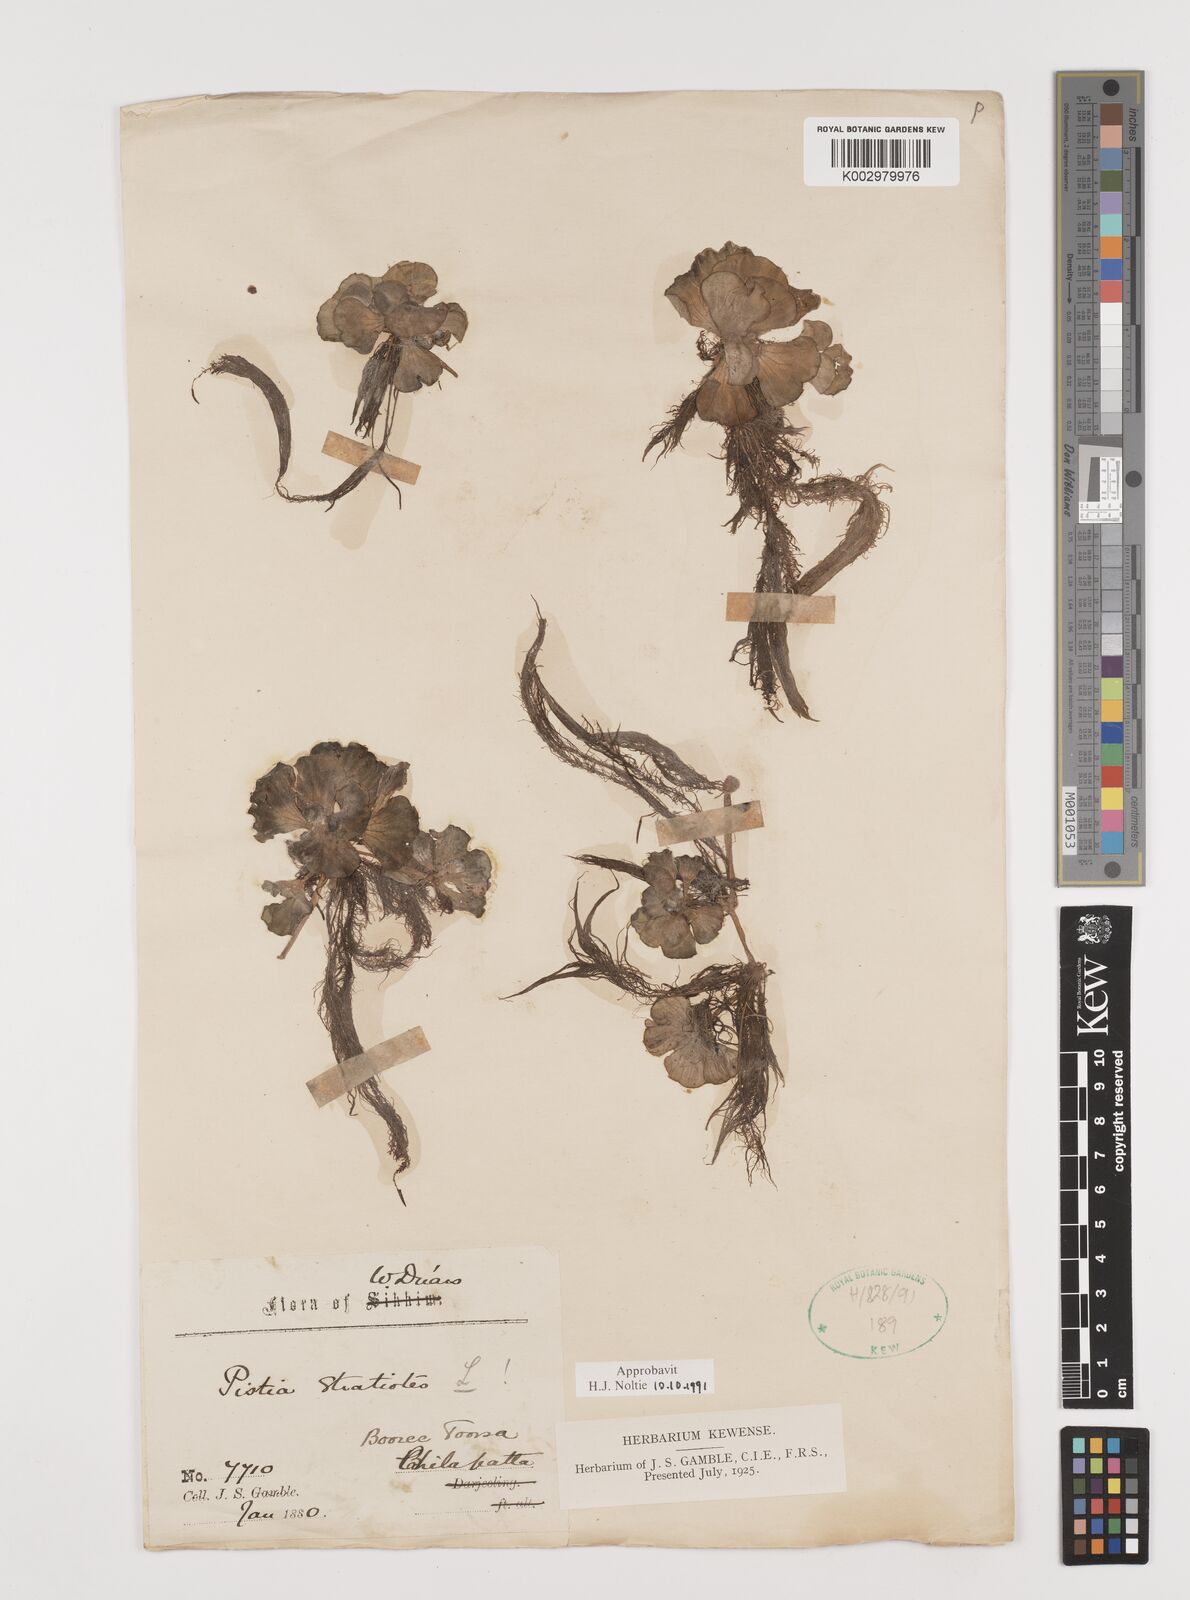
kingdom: Plantae
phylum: Tracheophyta
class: Liliopsida
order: Alismatales
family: Araceae
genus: Pistia
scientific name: Pistia stratiotes
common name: Water lettuce
